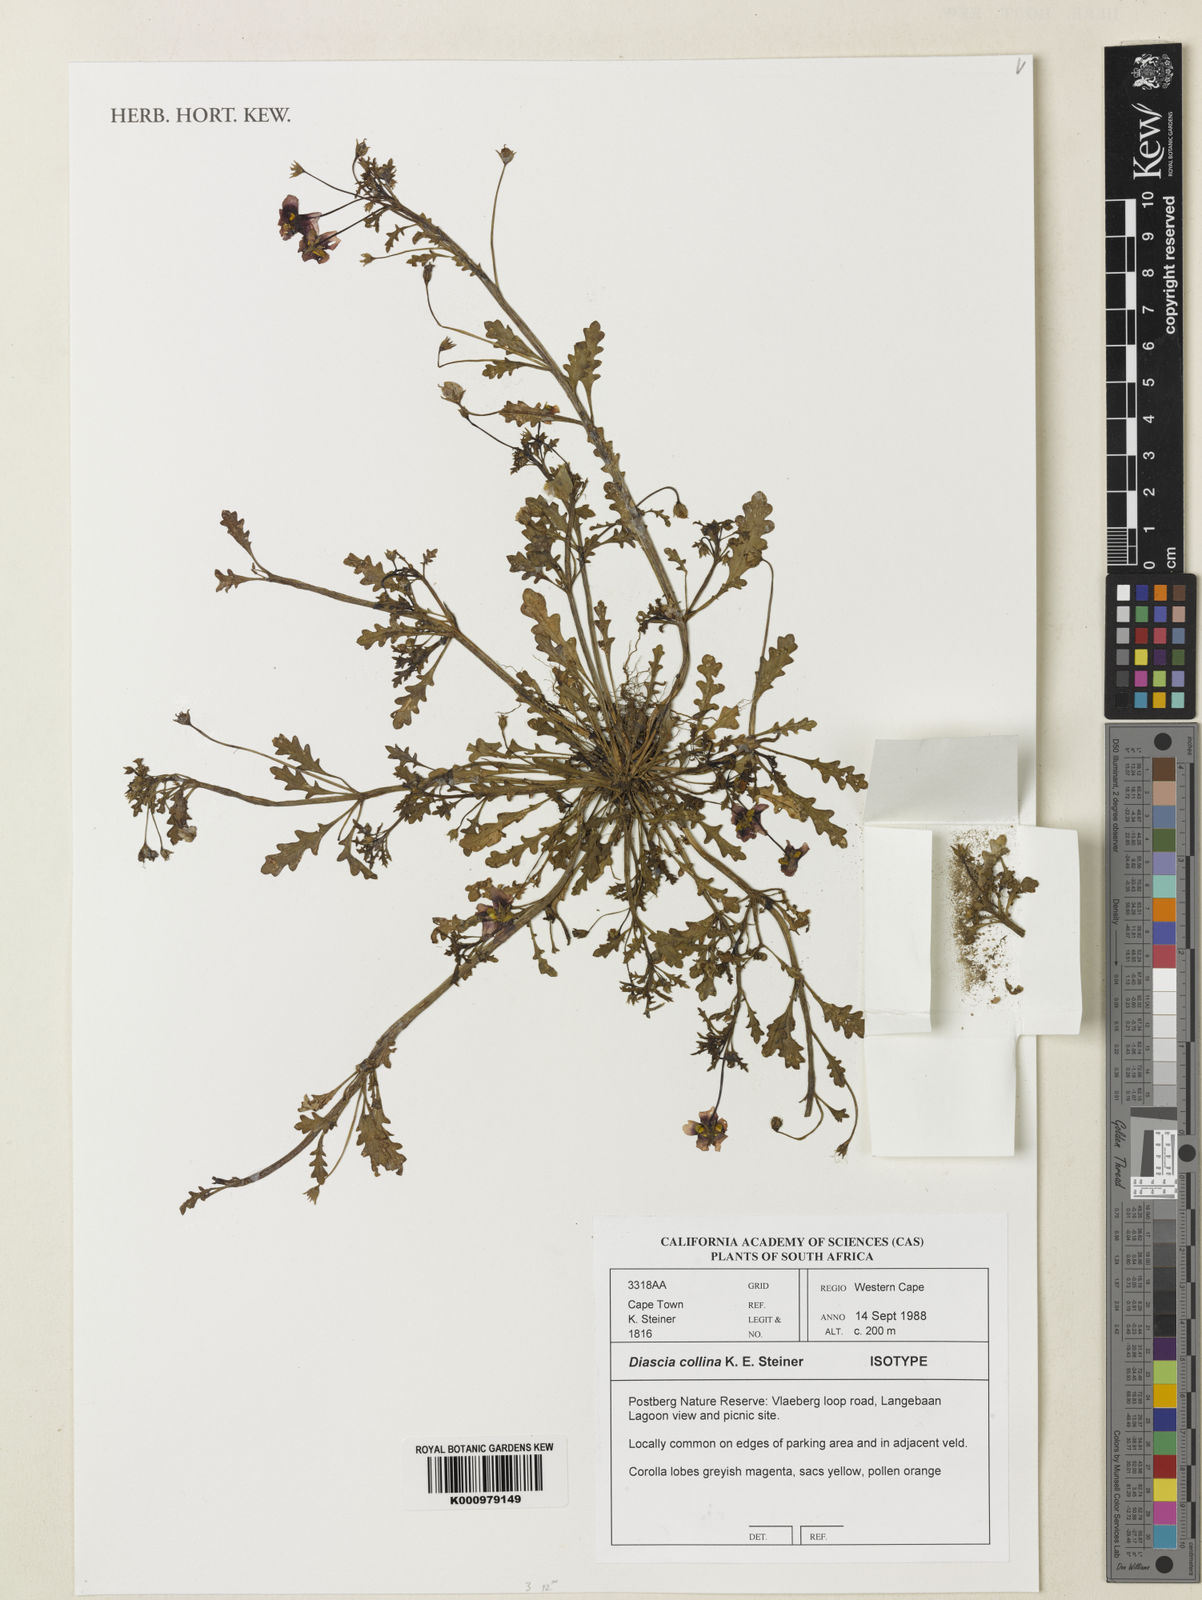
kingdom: Plantae
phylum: Tracheophyta
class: Magnoliopsida
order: Lamiales
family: Scrophulariaceae
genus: Diascia
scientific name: Diascia collina
